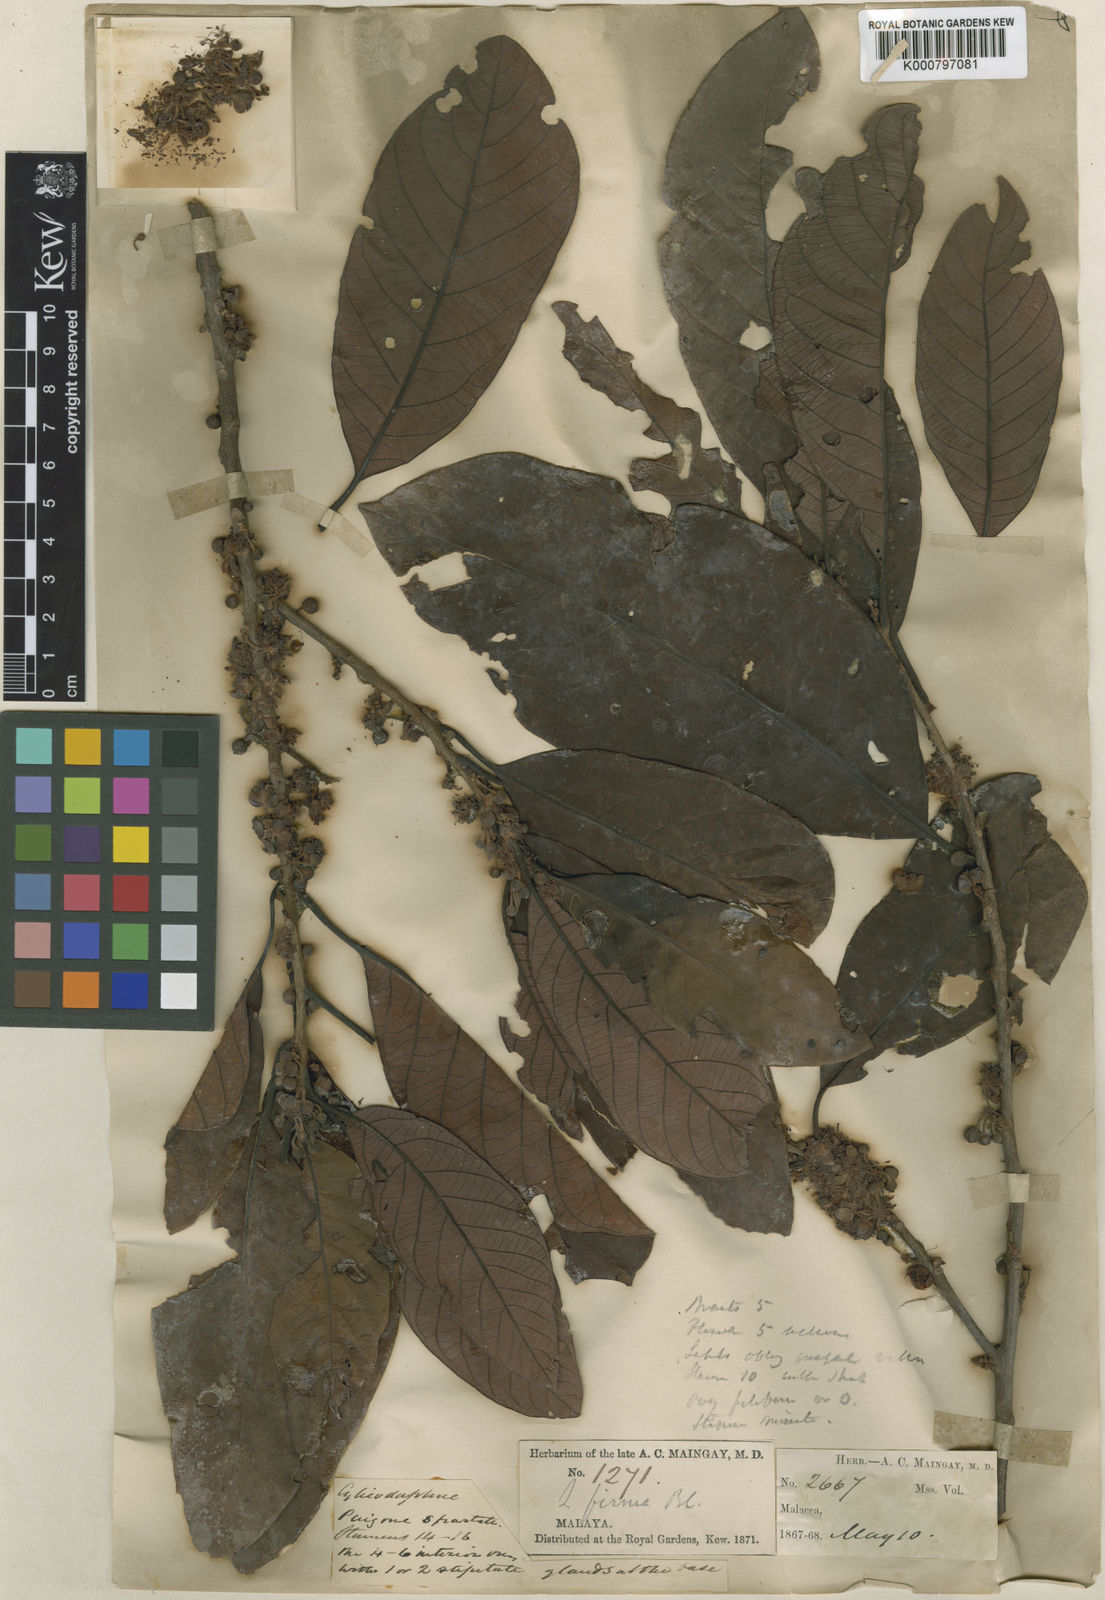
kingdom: Plantae
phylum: Tracheophyta
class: Magnoliopsida
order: Laurales
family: Lauraceae
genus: Litsea
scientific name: Litsea firma
